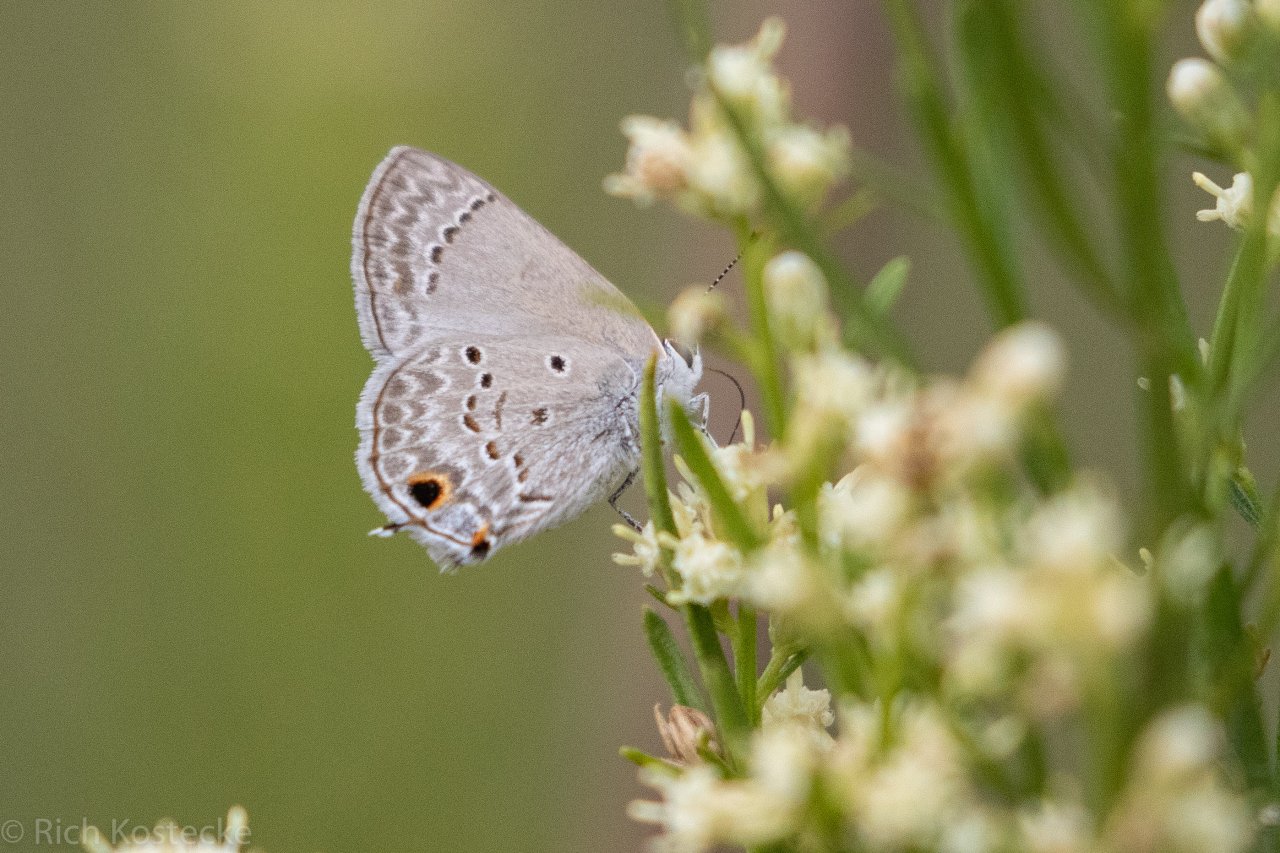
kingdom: Animalia
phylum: Arthropoda
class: Insecta
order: Lepidoptera
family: Lycaenidae
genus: Callicista
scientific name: Callicista columella
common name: Mallow Scrub-Hairstreak
